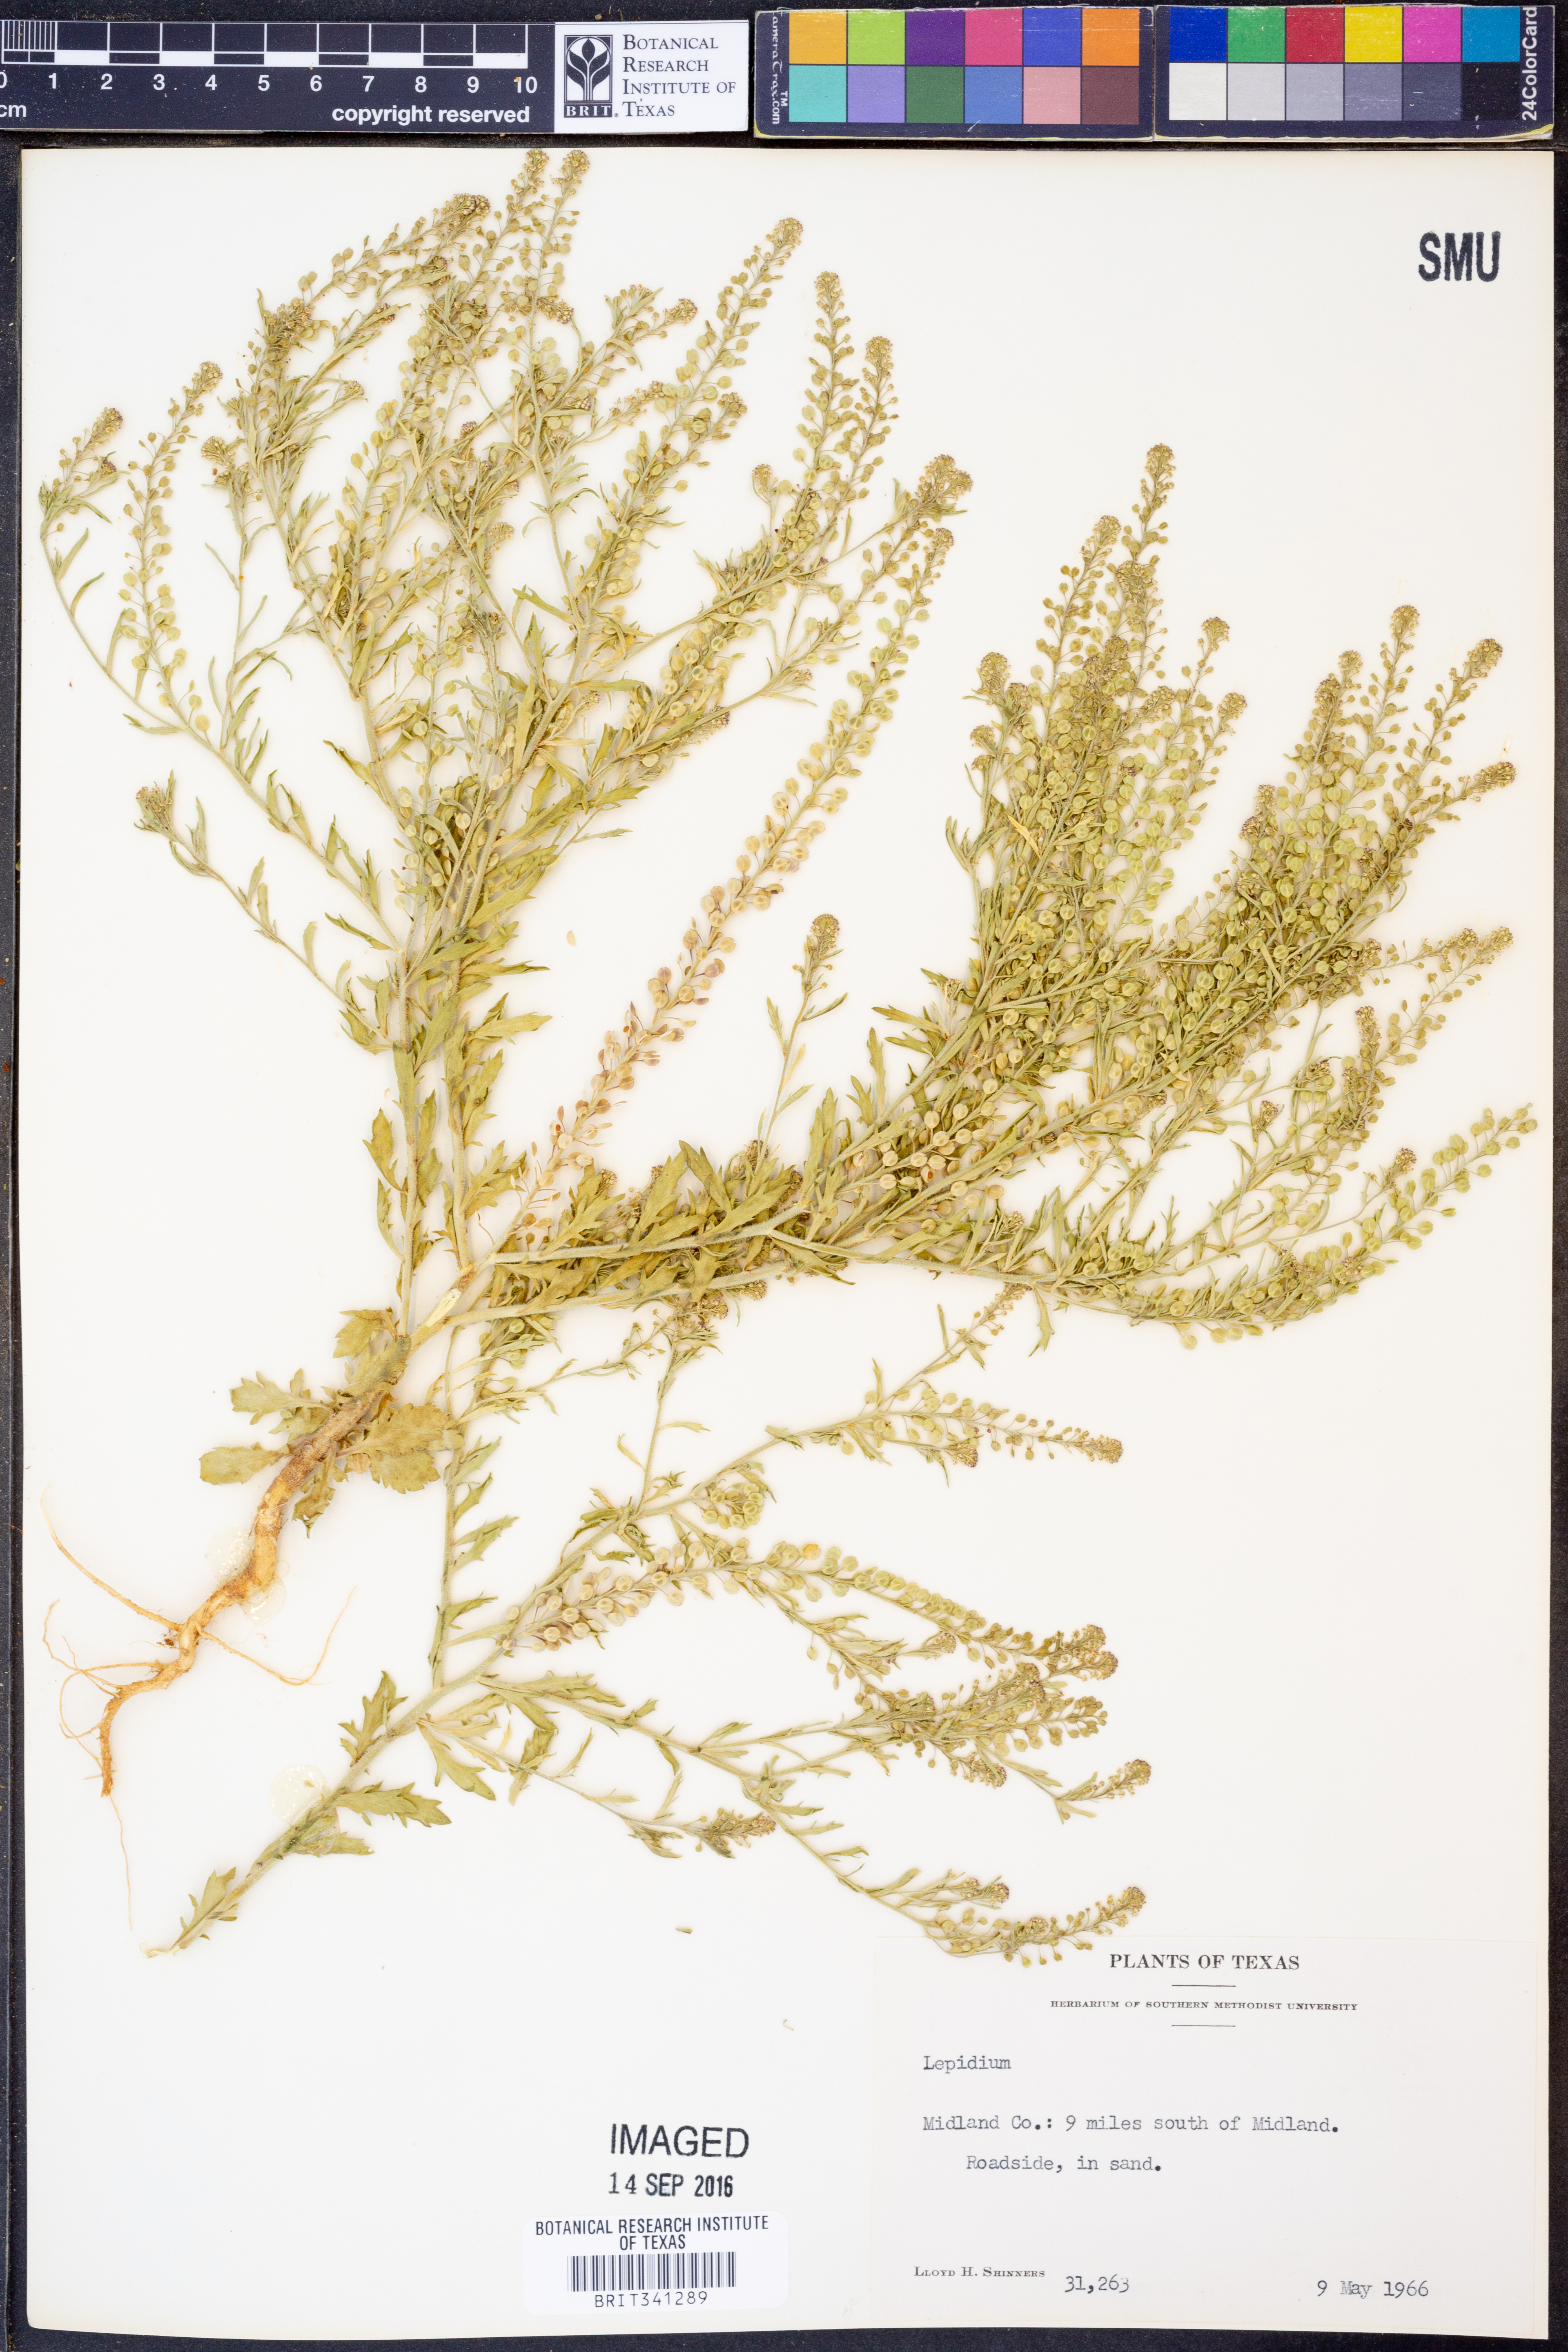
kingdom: Plantae
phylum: Tracheophyta
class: Magnoliopsida
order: Brassicales
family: Brassicaceae
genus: Lepidium
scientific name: Lepidium
